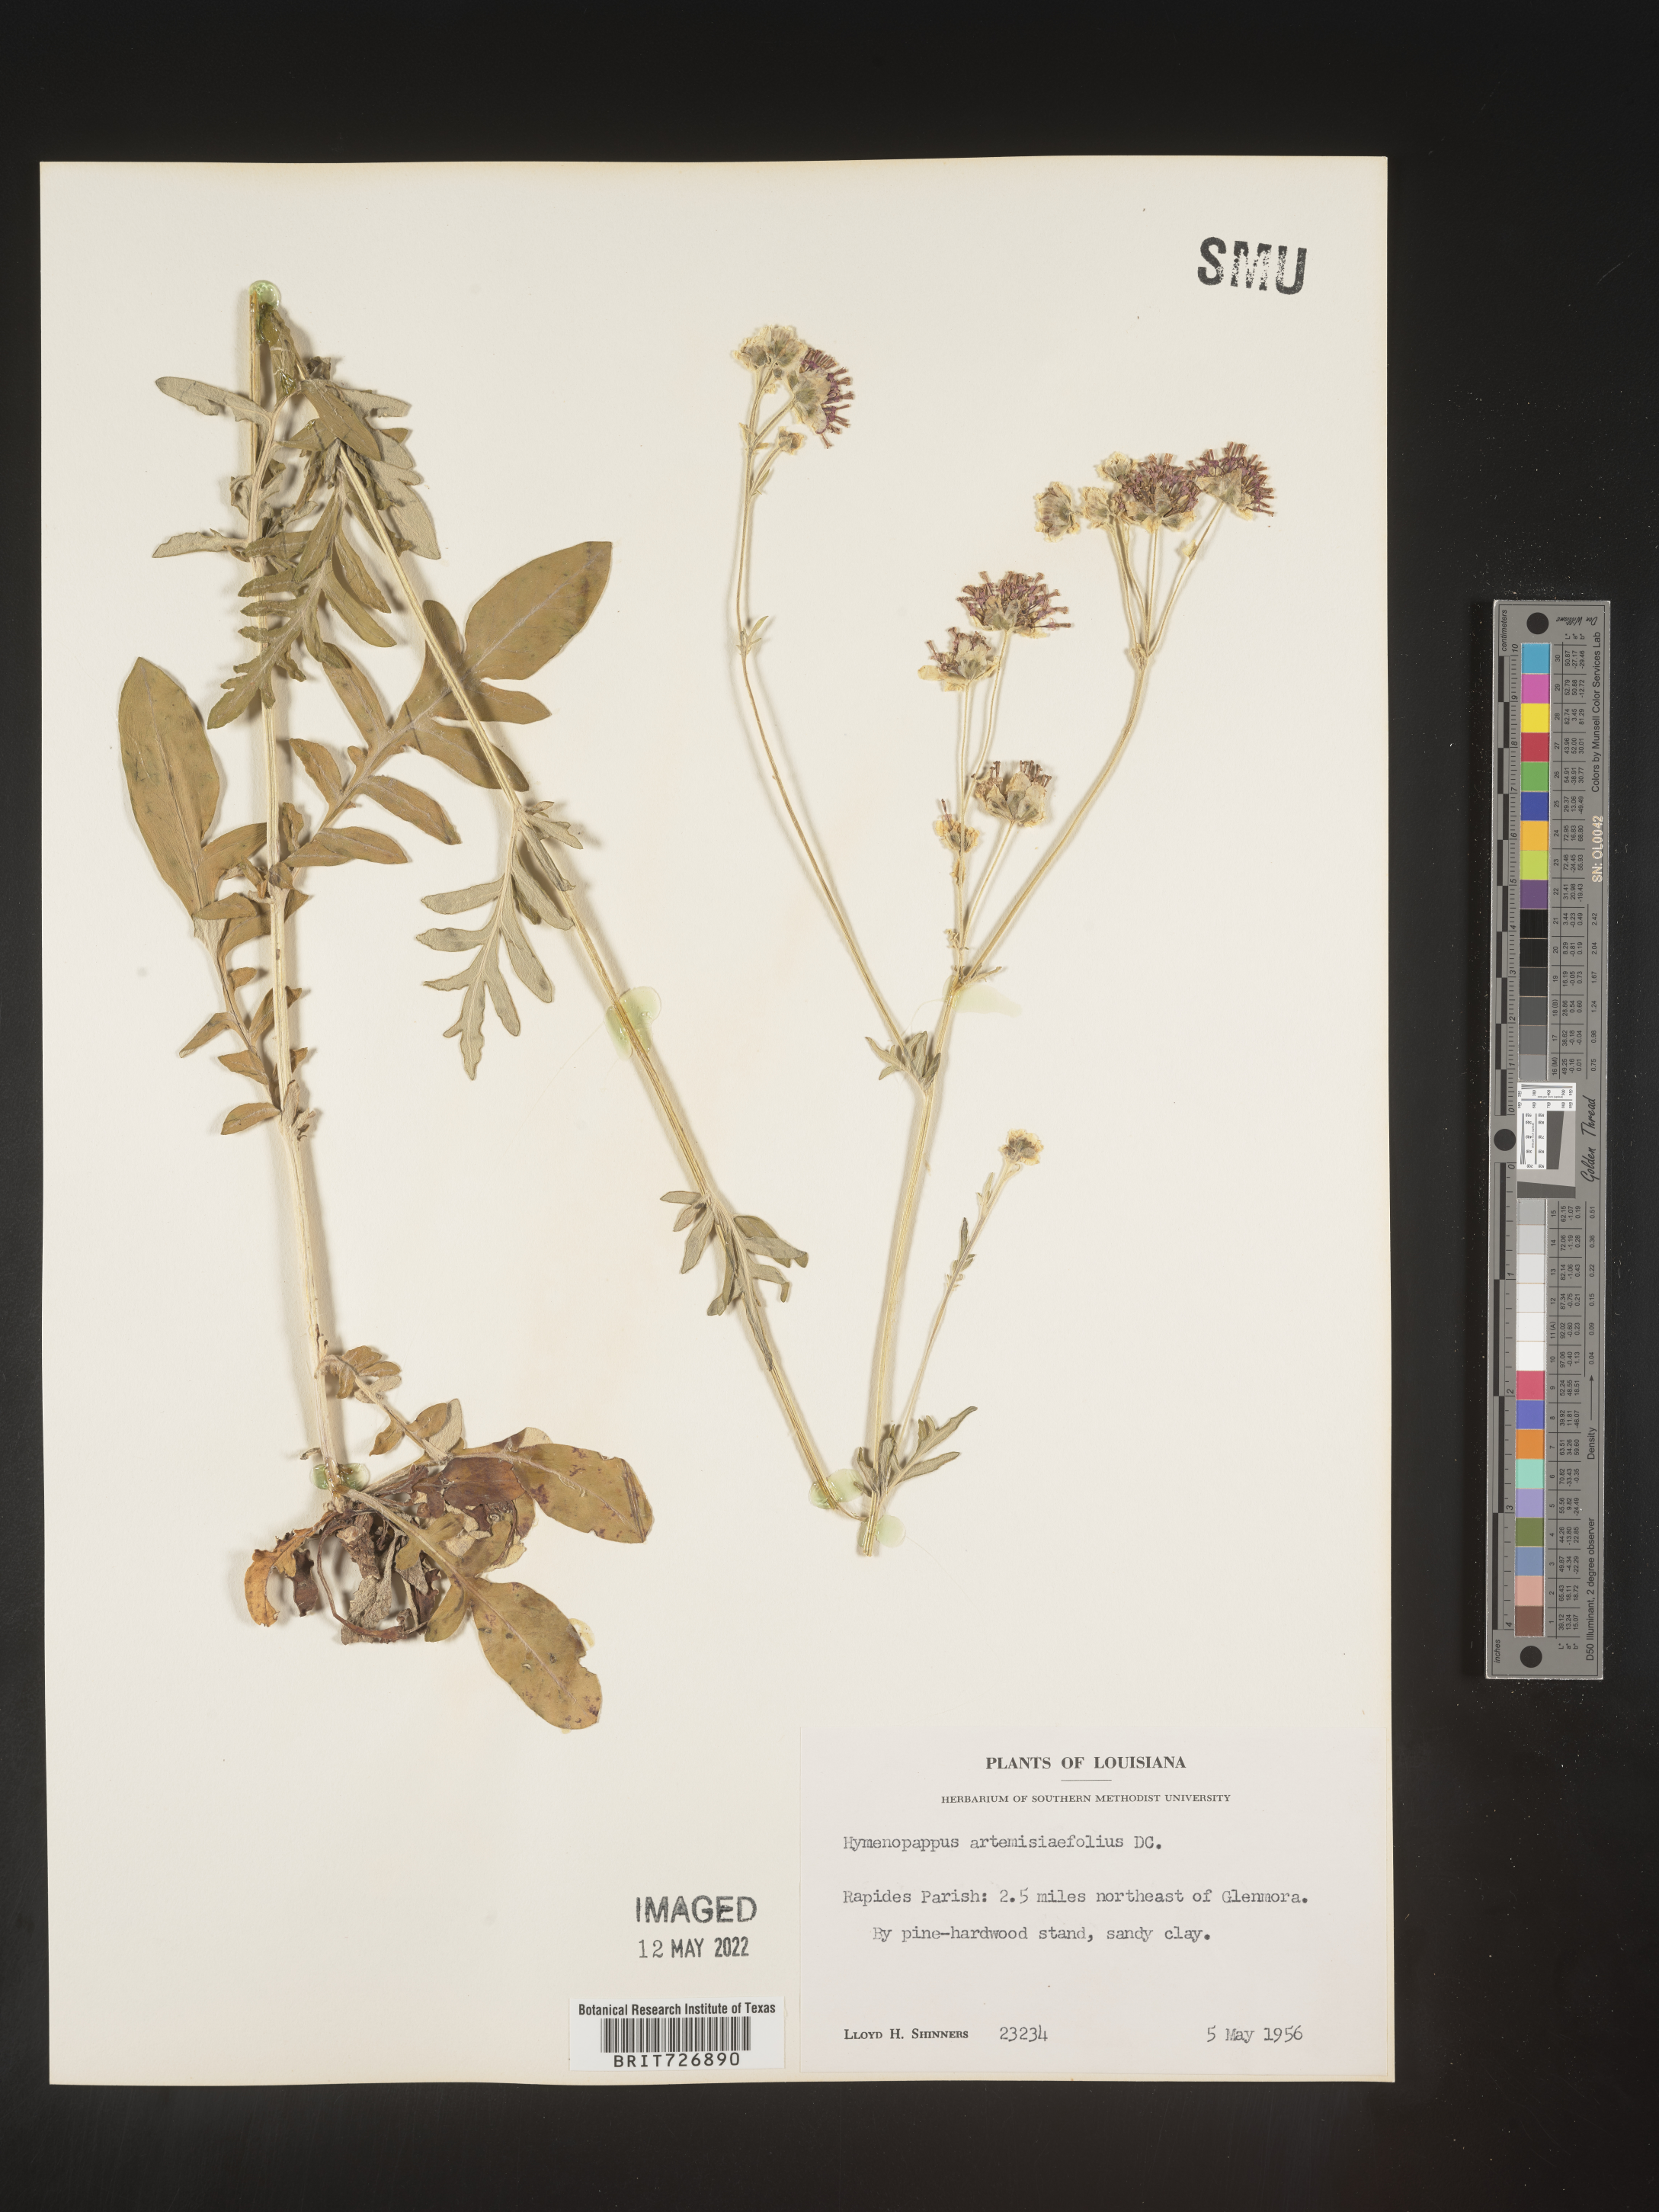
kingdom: Plantae
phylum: Tracheophyta
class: Magnoliopsida
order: Asterales
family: Asteraceae
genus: Hymenopappus
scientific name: Hymenopappus artemisiifolius
